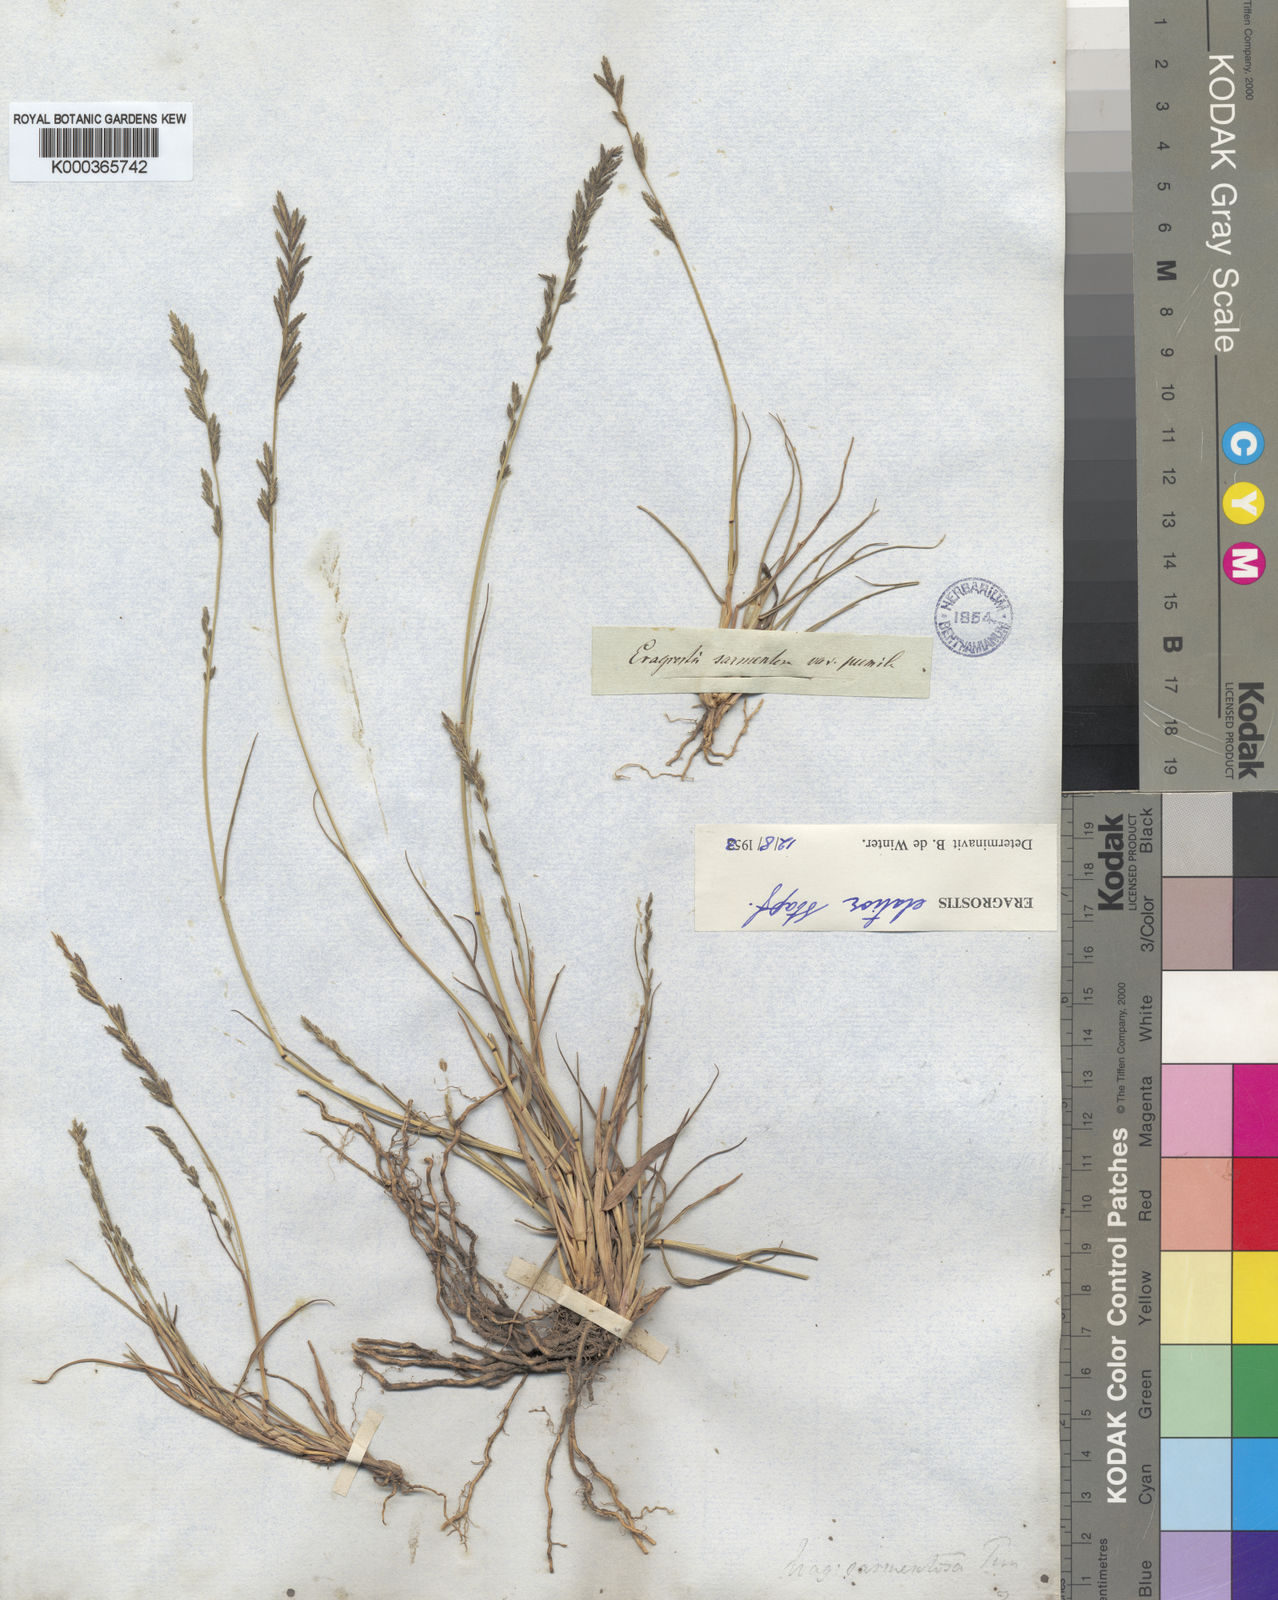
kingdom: Plantae
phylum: Tracheophyta
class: Liliopsida
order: Poales
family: Poaceae
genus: Eragrostis
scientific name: Eragrostis elatior
